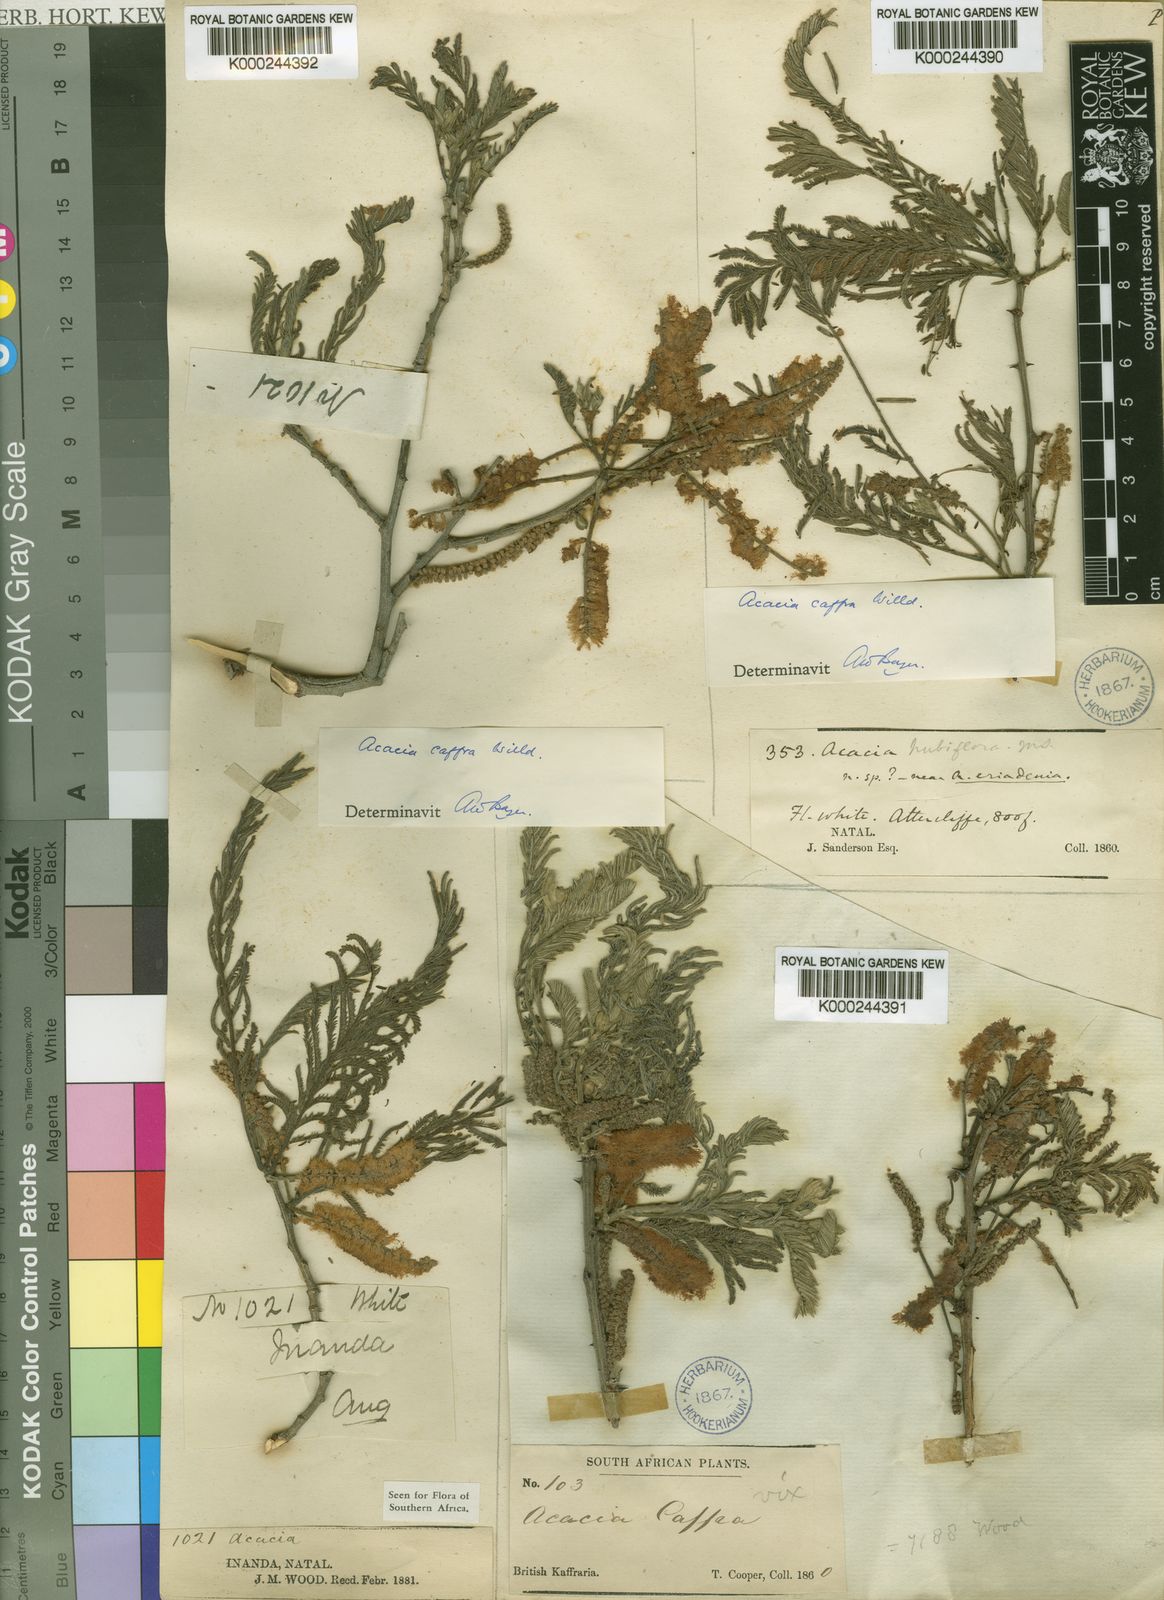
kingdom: Plantae
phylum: Tracheophyta
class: Magnoliopsida
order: Fabales
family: Fabaceae
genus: Senegalia
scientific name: Senegalia caffra
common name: Cat thorn
